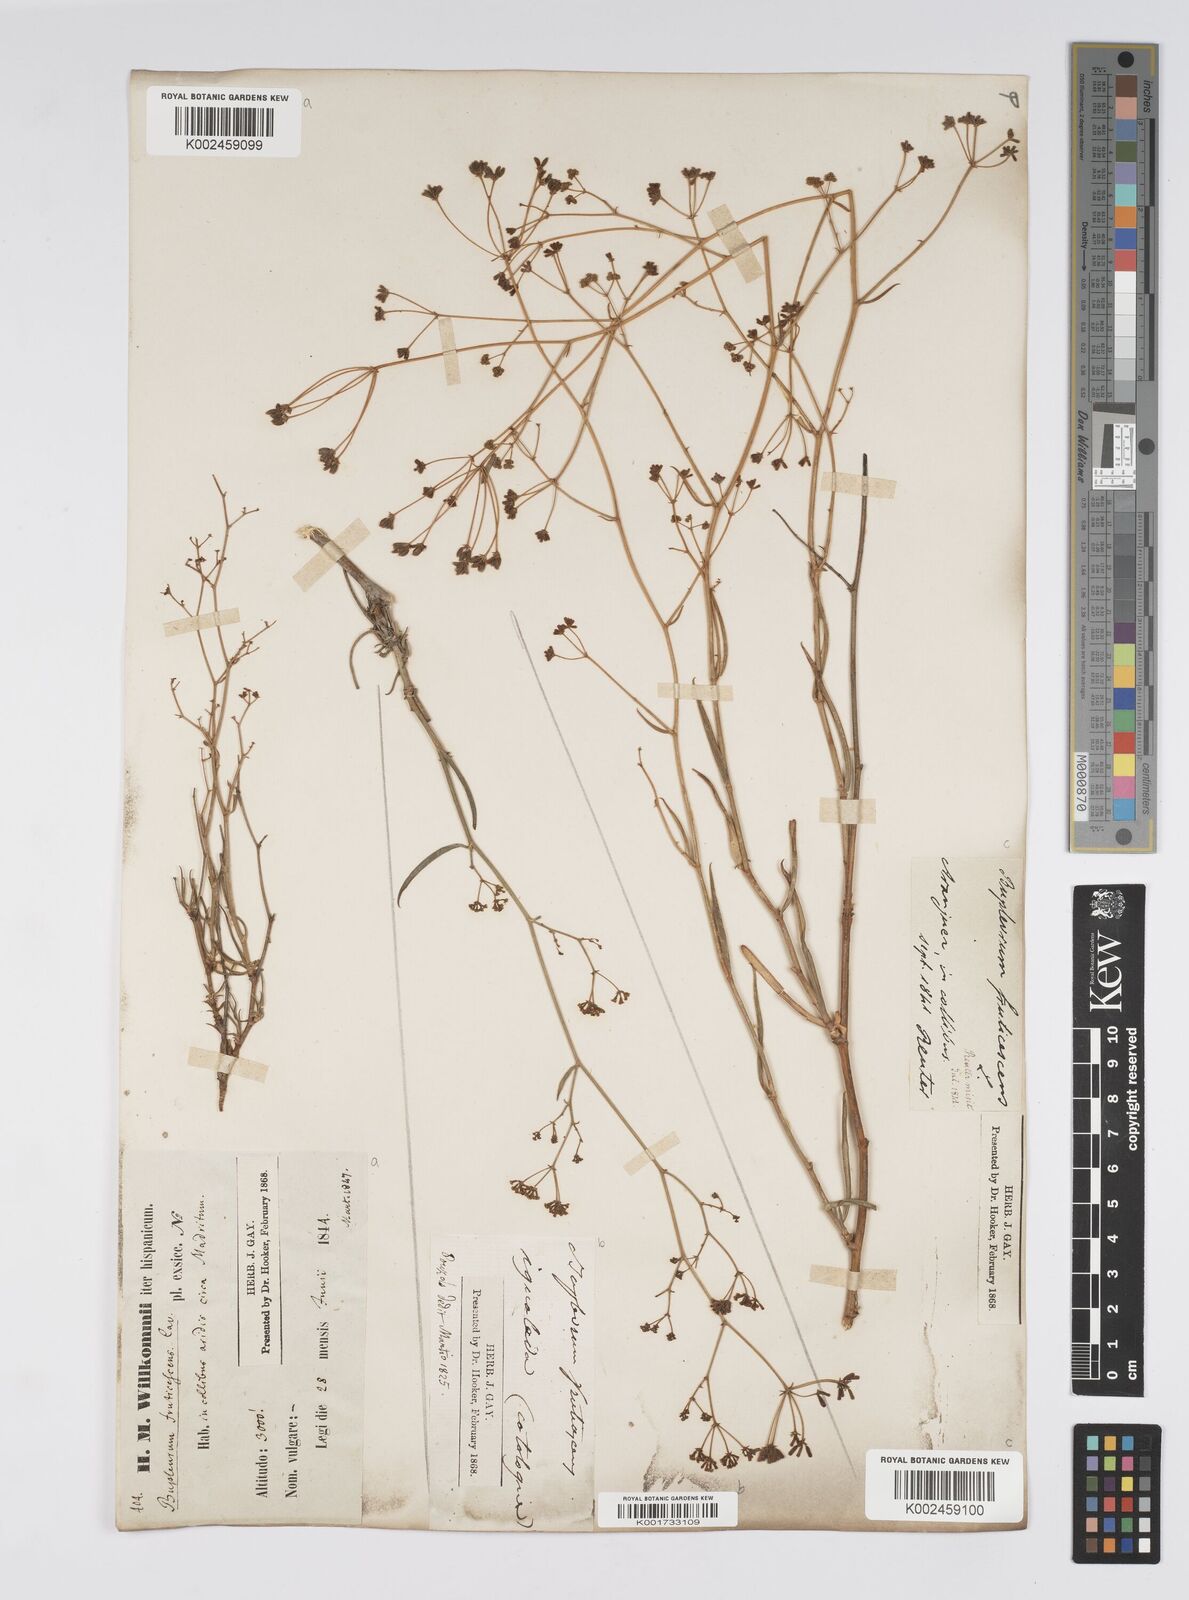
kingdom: Plantae
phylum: Tracheophyta
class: Magnoliopsida
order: Apiales
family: Apiaceae
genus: Bupleurum
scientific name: Bupleurum fruticescens
